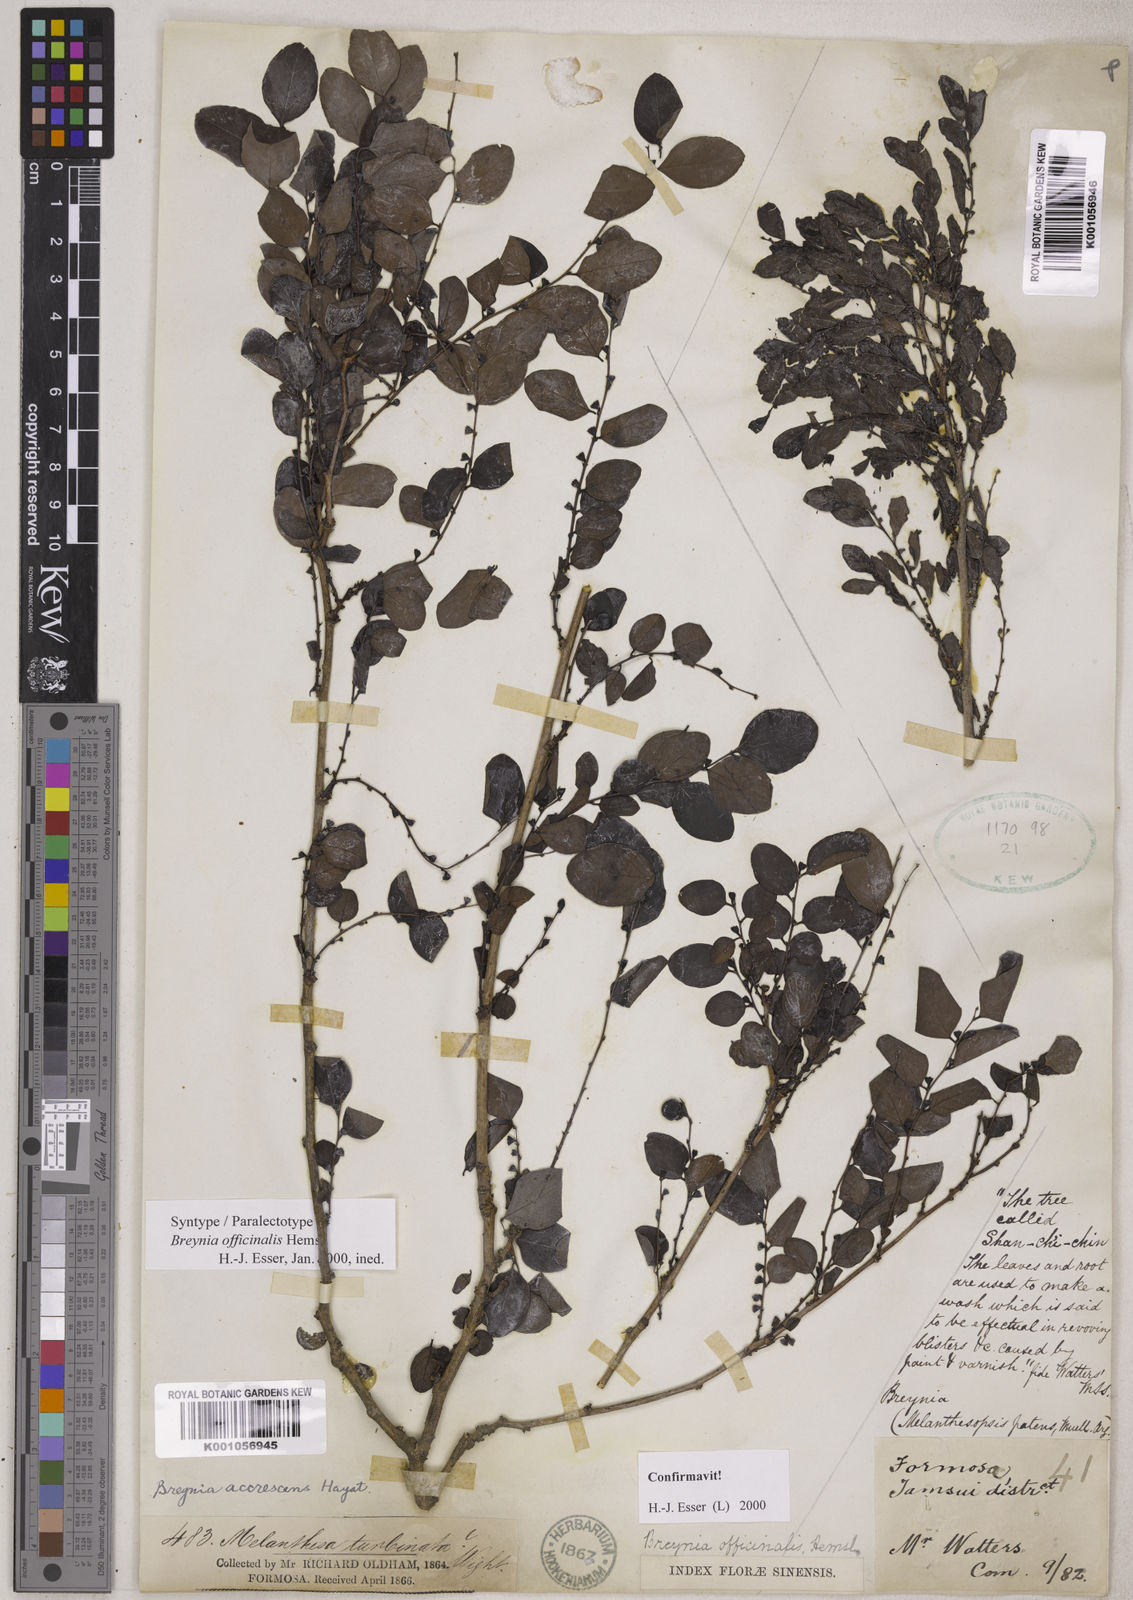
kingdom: Plantae
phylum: Tracheophyta
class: Magnoliopsida
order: Malpighiales
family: Phyllanthaceae
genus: Breynia
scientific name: Breynia vitis-idaea
